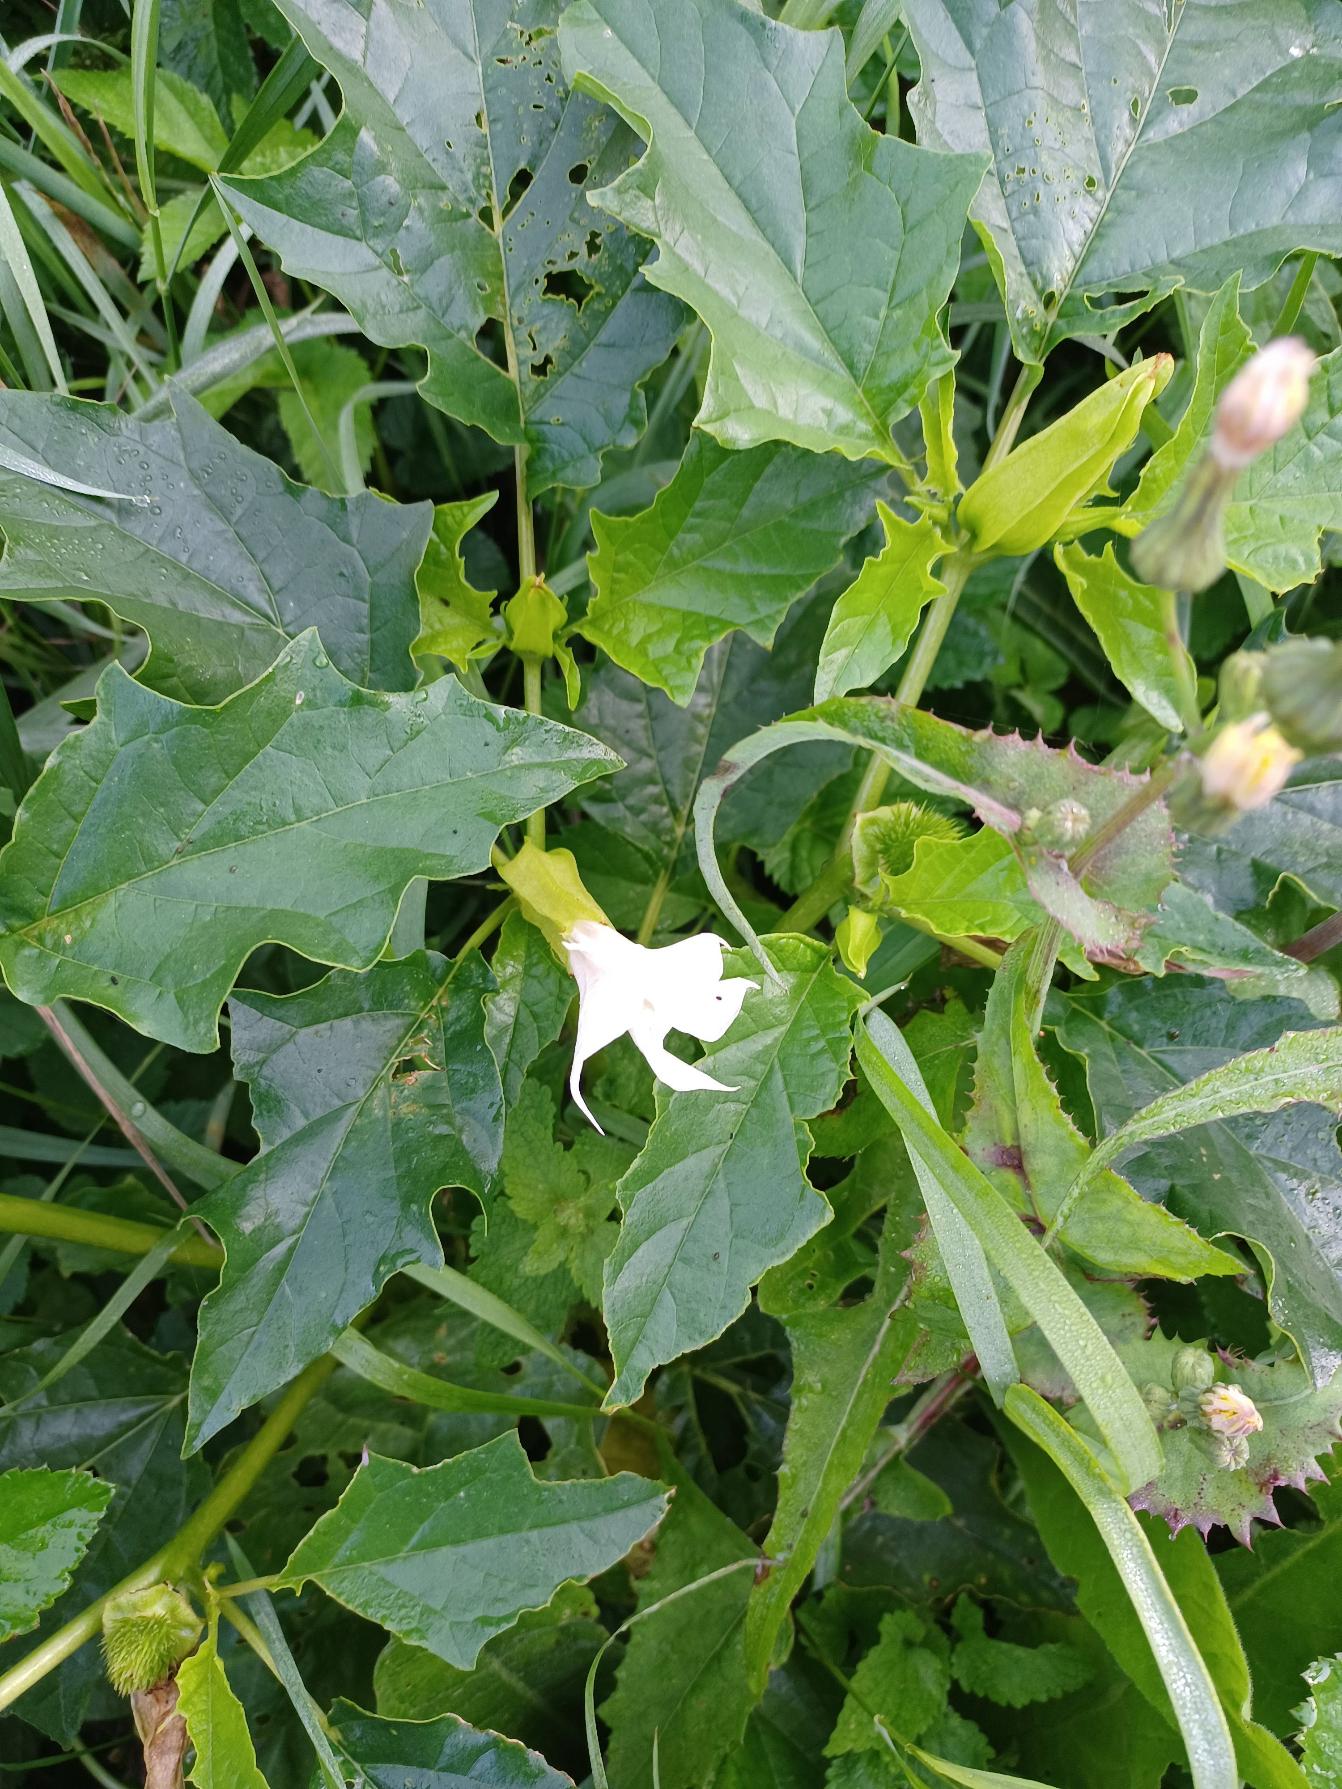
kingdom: Plantae
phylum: Tracheophyta
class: Magnoliopsida
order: Solanales
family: Solanaceae
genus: Datura
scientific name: Datura stramonium
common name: Pigæble
